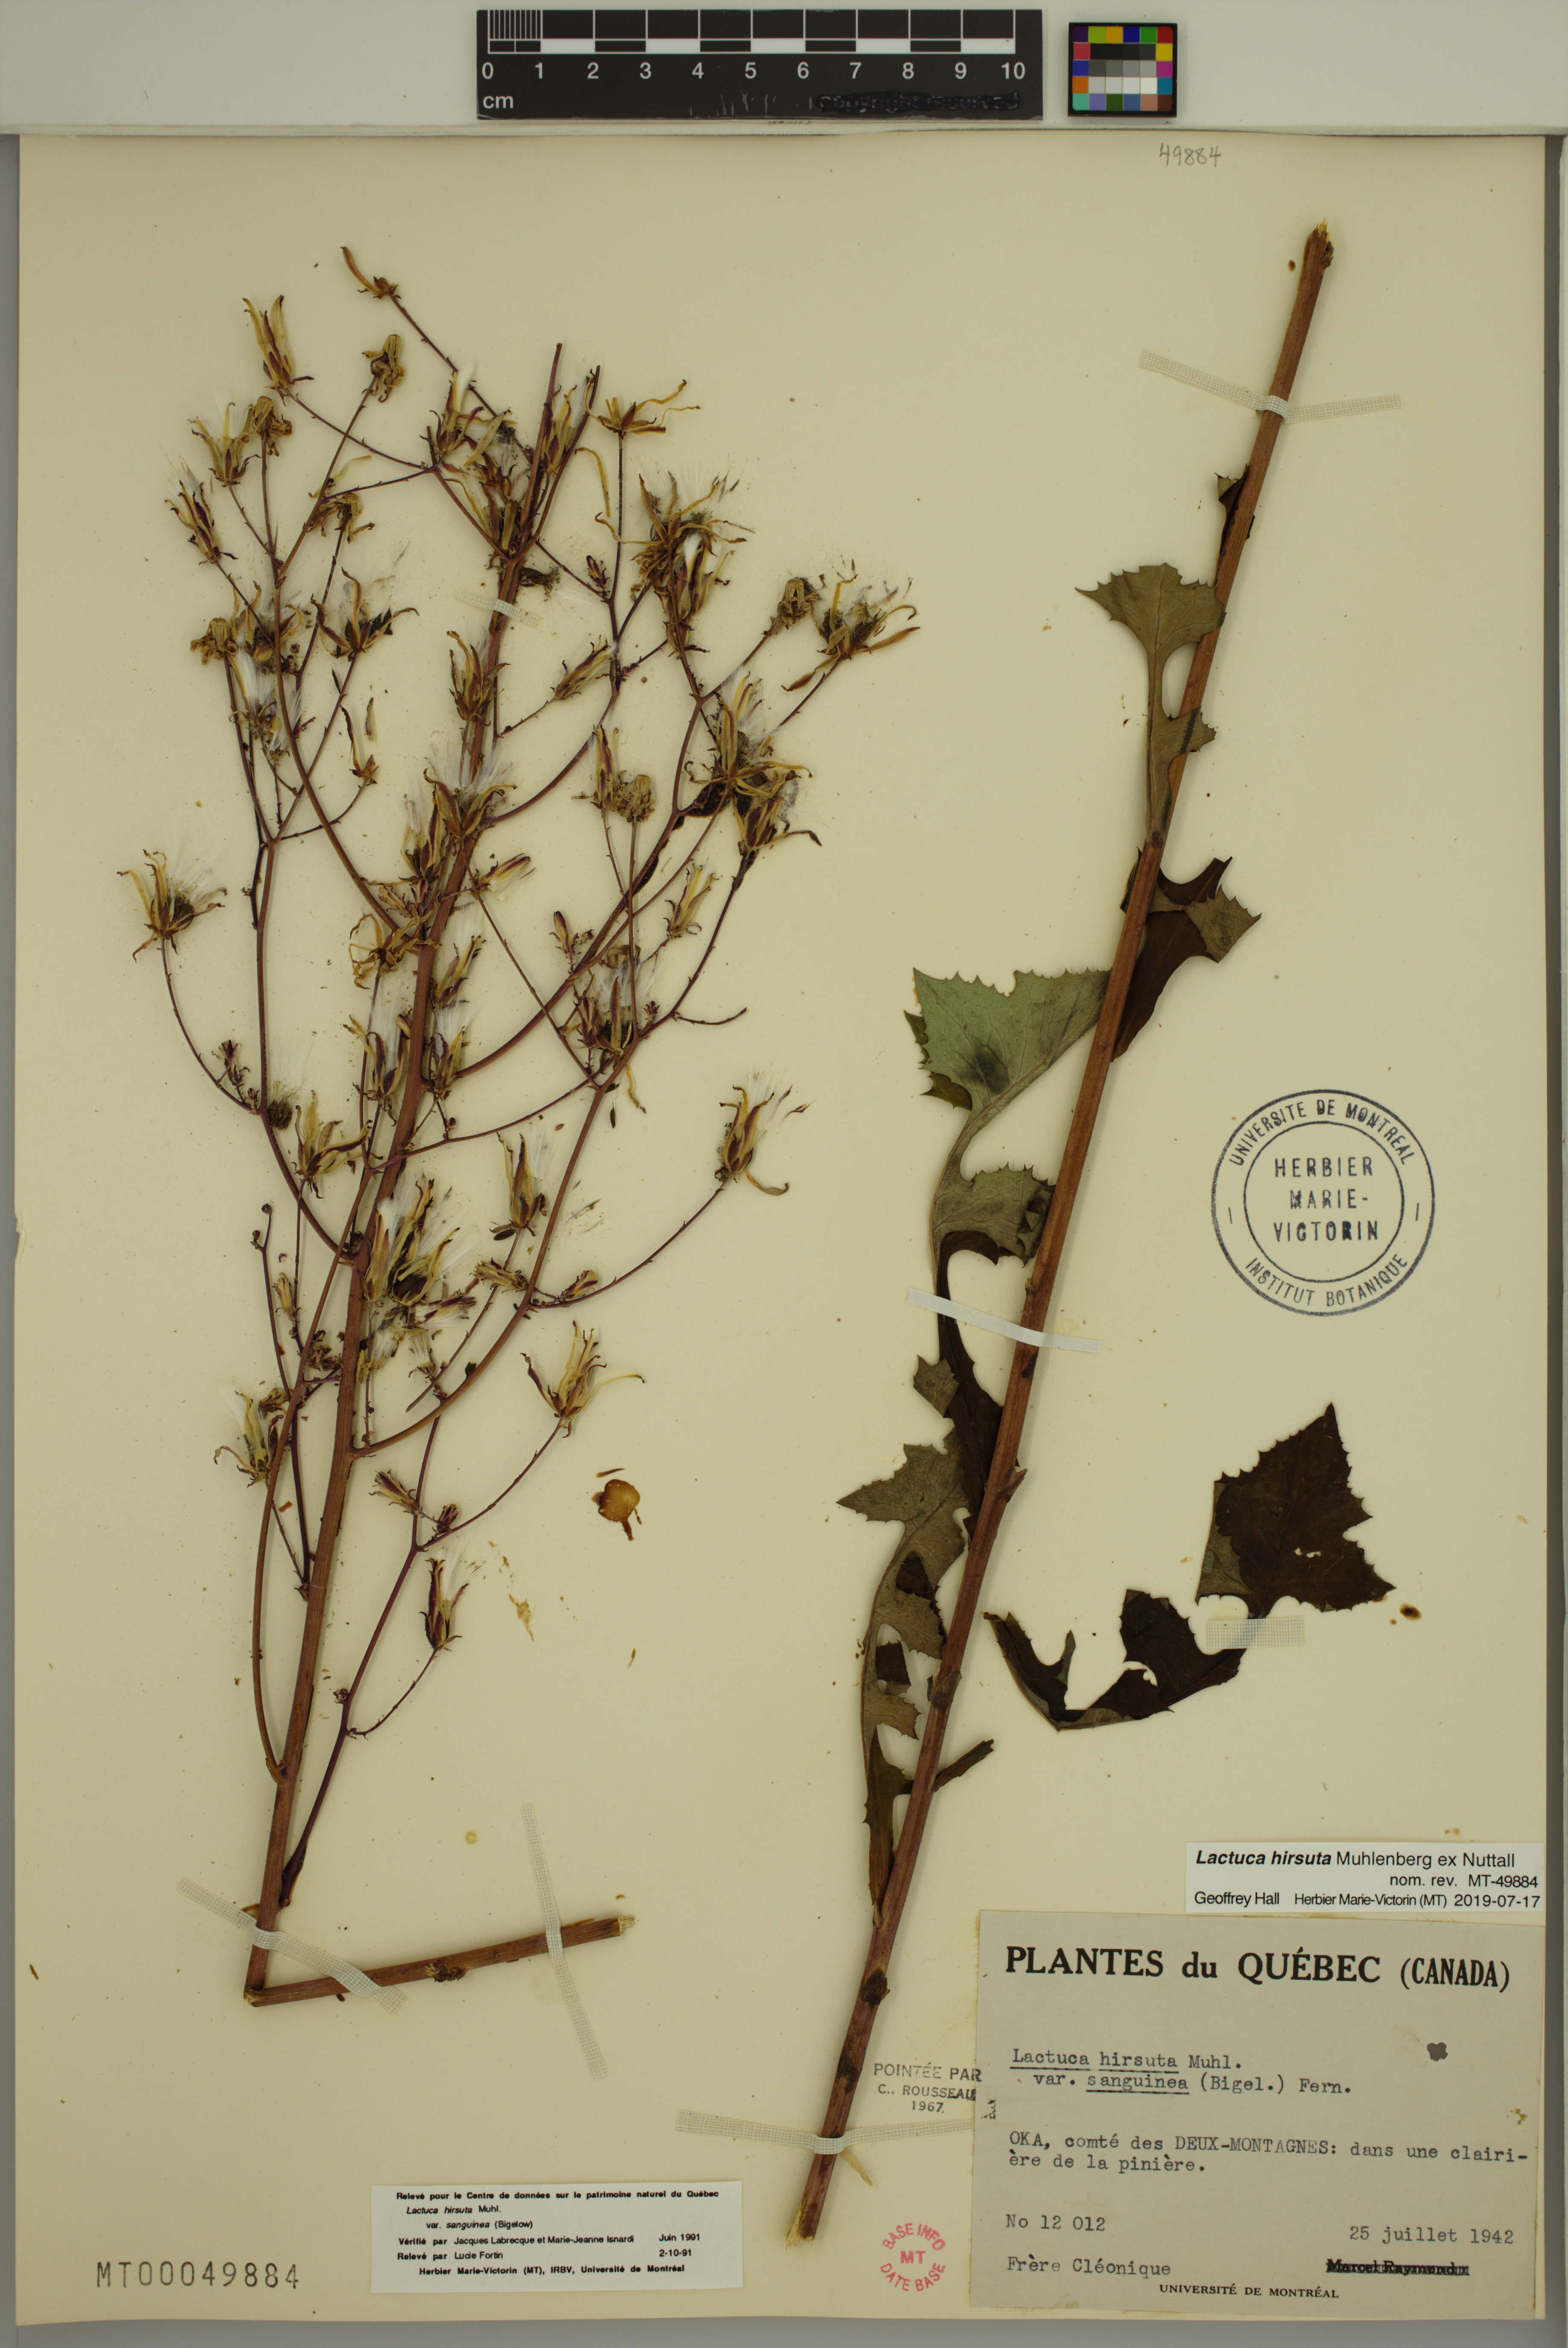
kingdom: Plantae
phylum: Tracheophyta
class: Magnoliopsida
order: Asterales
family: Asteraceae
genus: Lactuca
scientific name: Lactuca hirsuta
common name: Hairy lettuce
